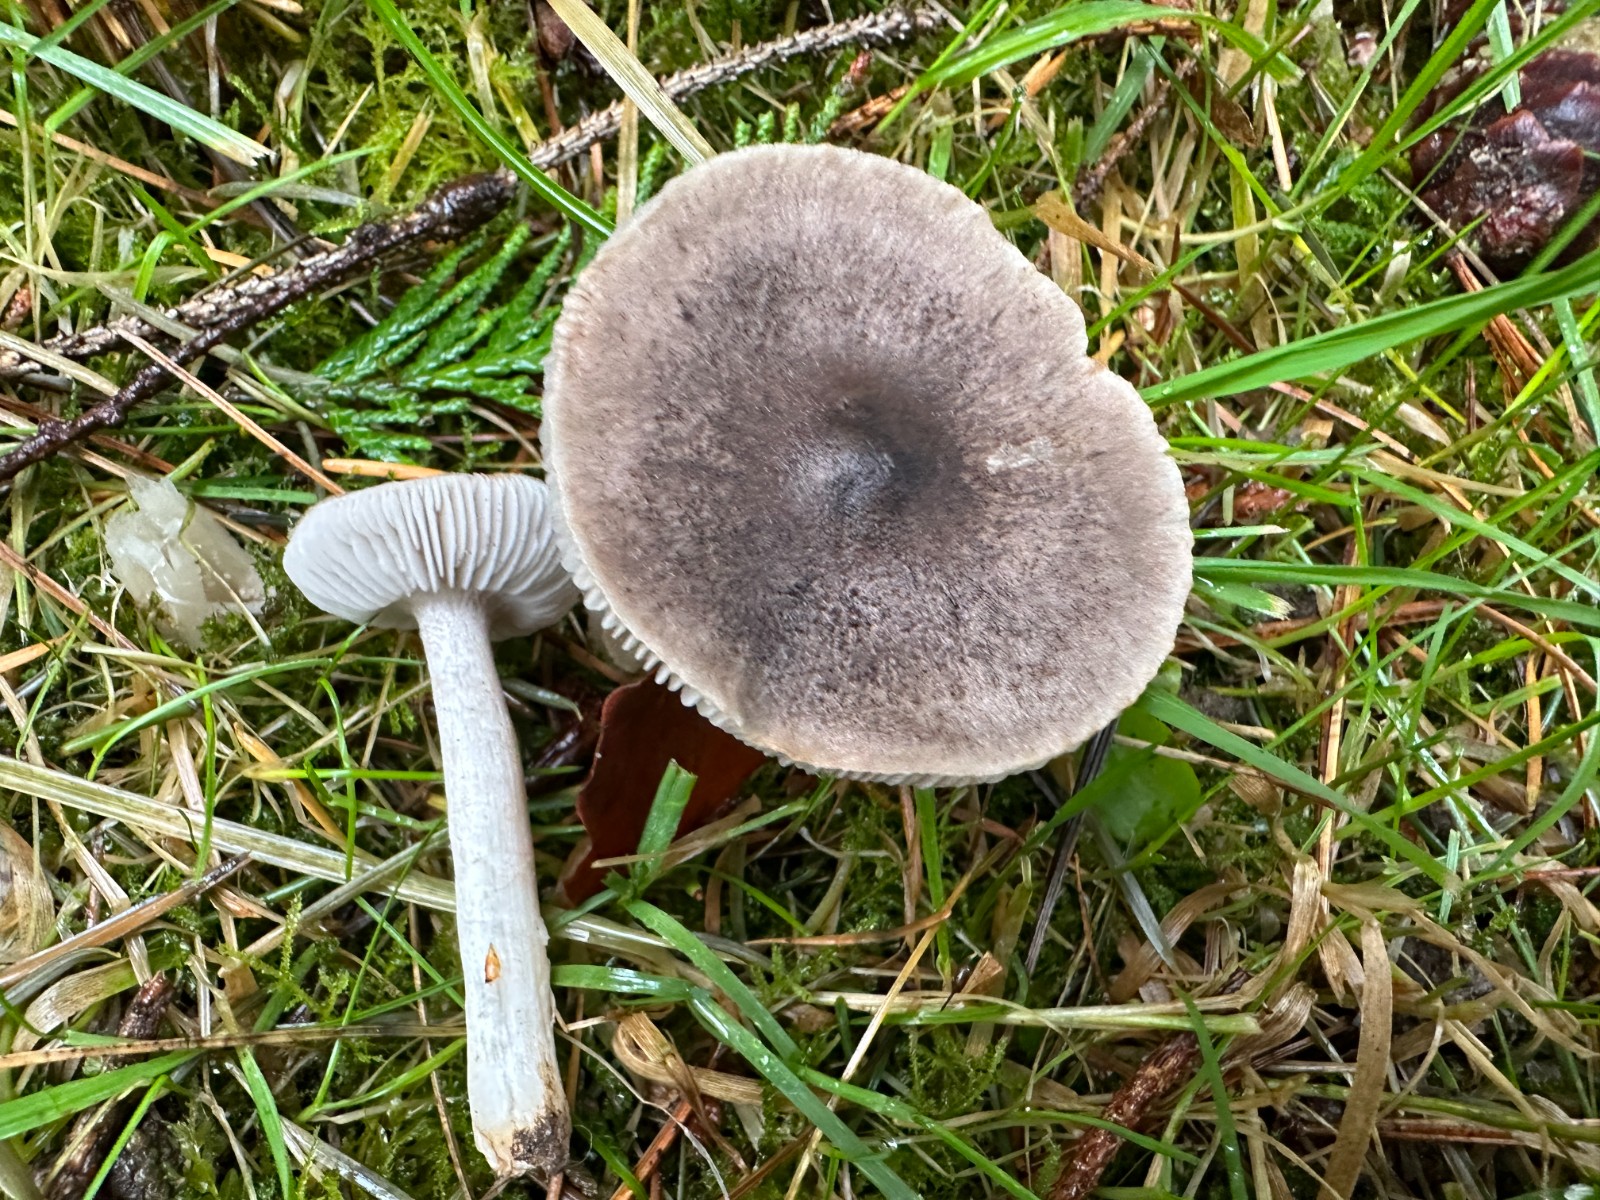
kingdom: Fungi
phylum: Basidiomycota
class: Agaricomycetes
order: Agaricales
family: Tricholomataceae
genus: Tricholoma
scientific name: Tricholoma terreum
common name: jordfarvet ridderhat
